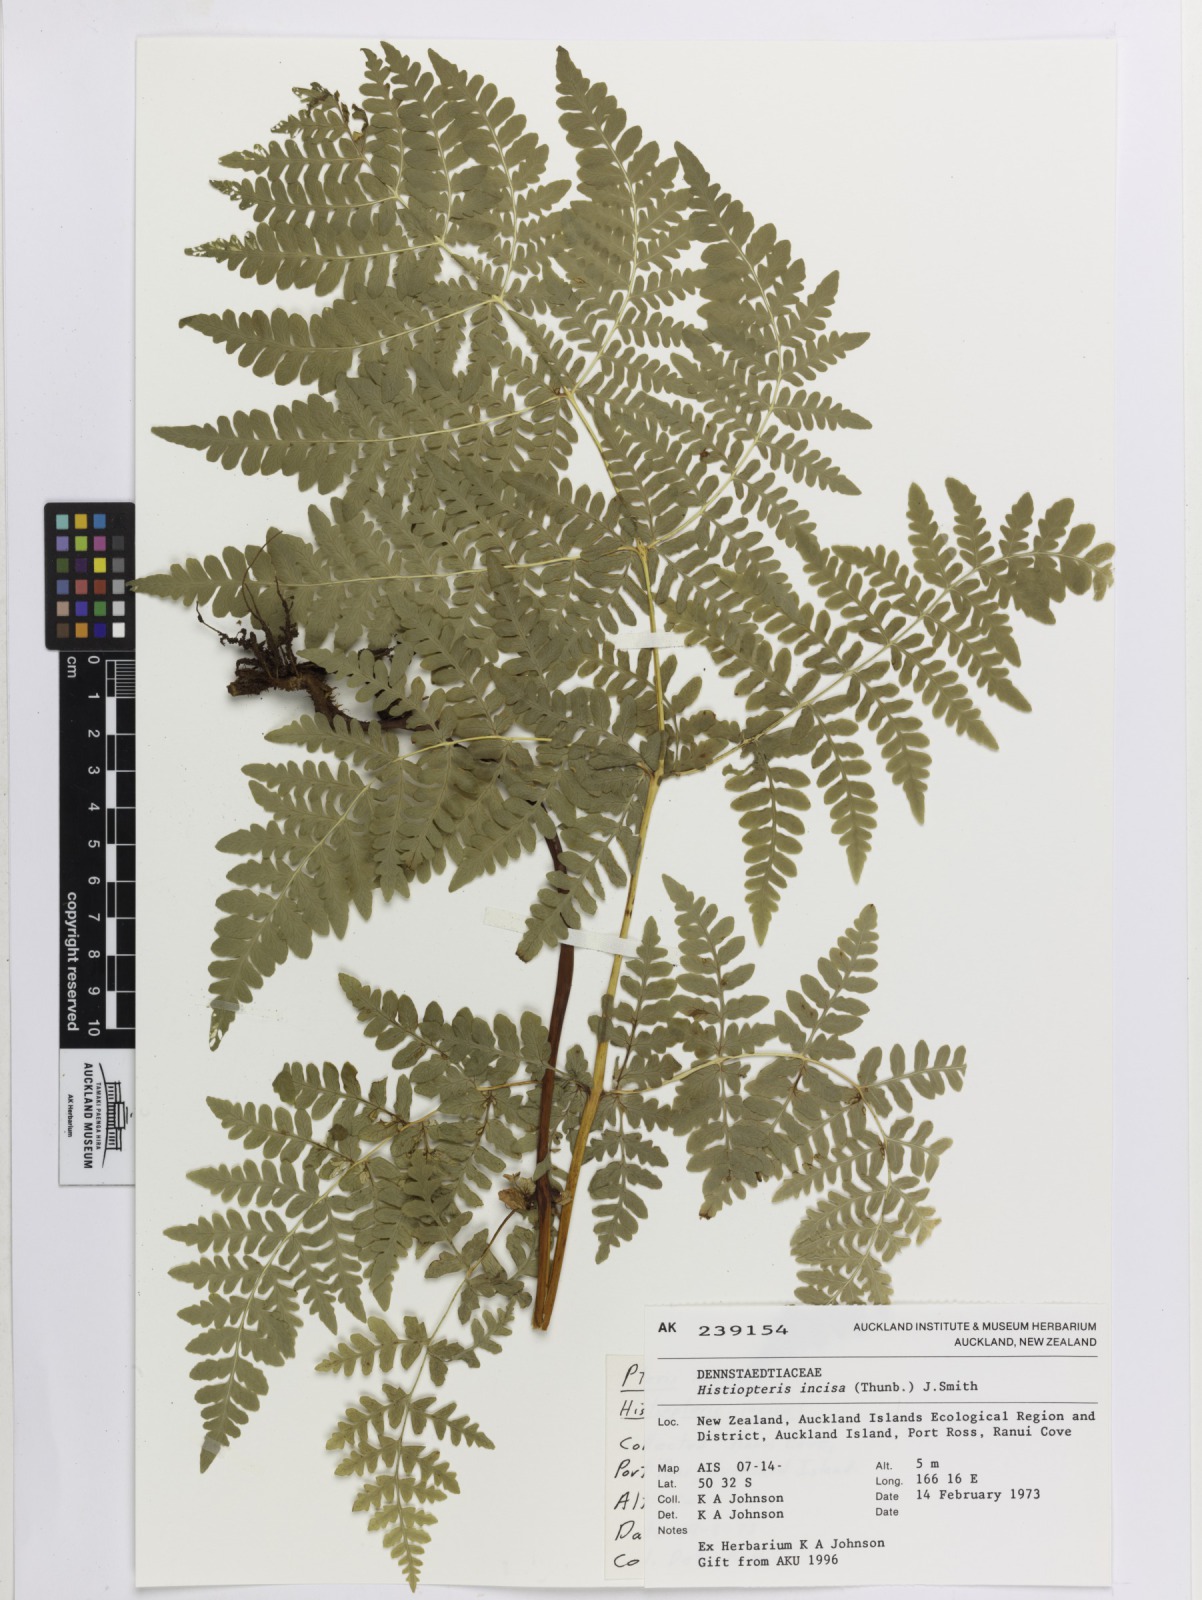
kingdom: Plantae
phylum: Tracheophyta
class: Polypodiopsida
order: Polypodiales
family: Dennstaedtiaceae
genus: Histiopteris
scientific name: Histiopteris incisa
